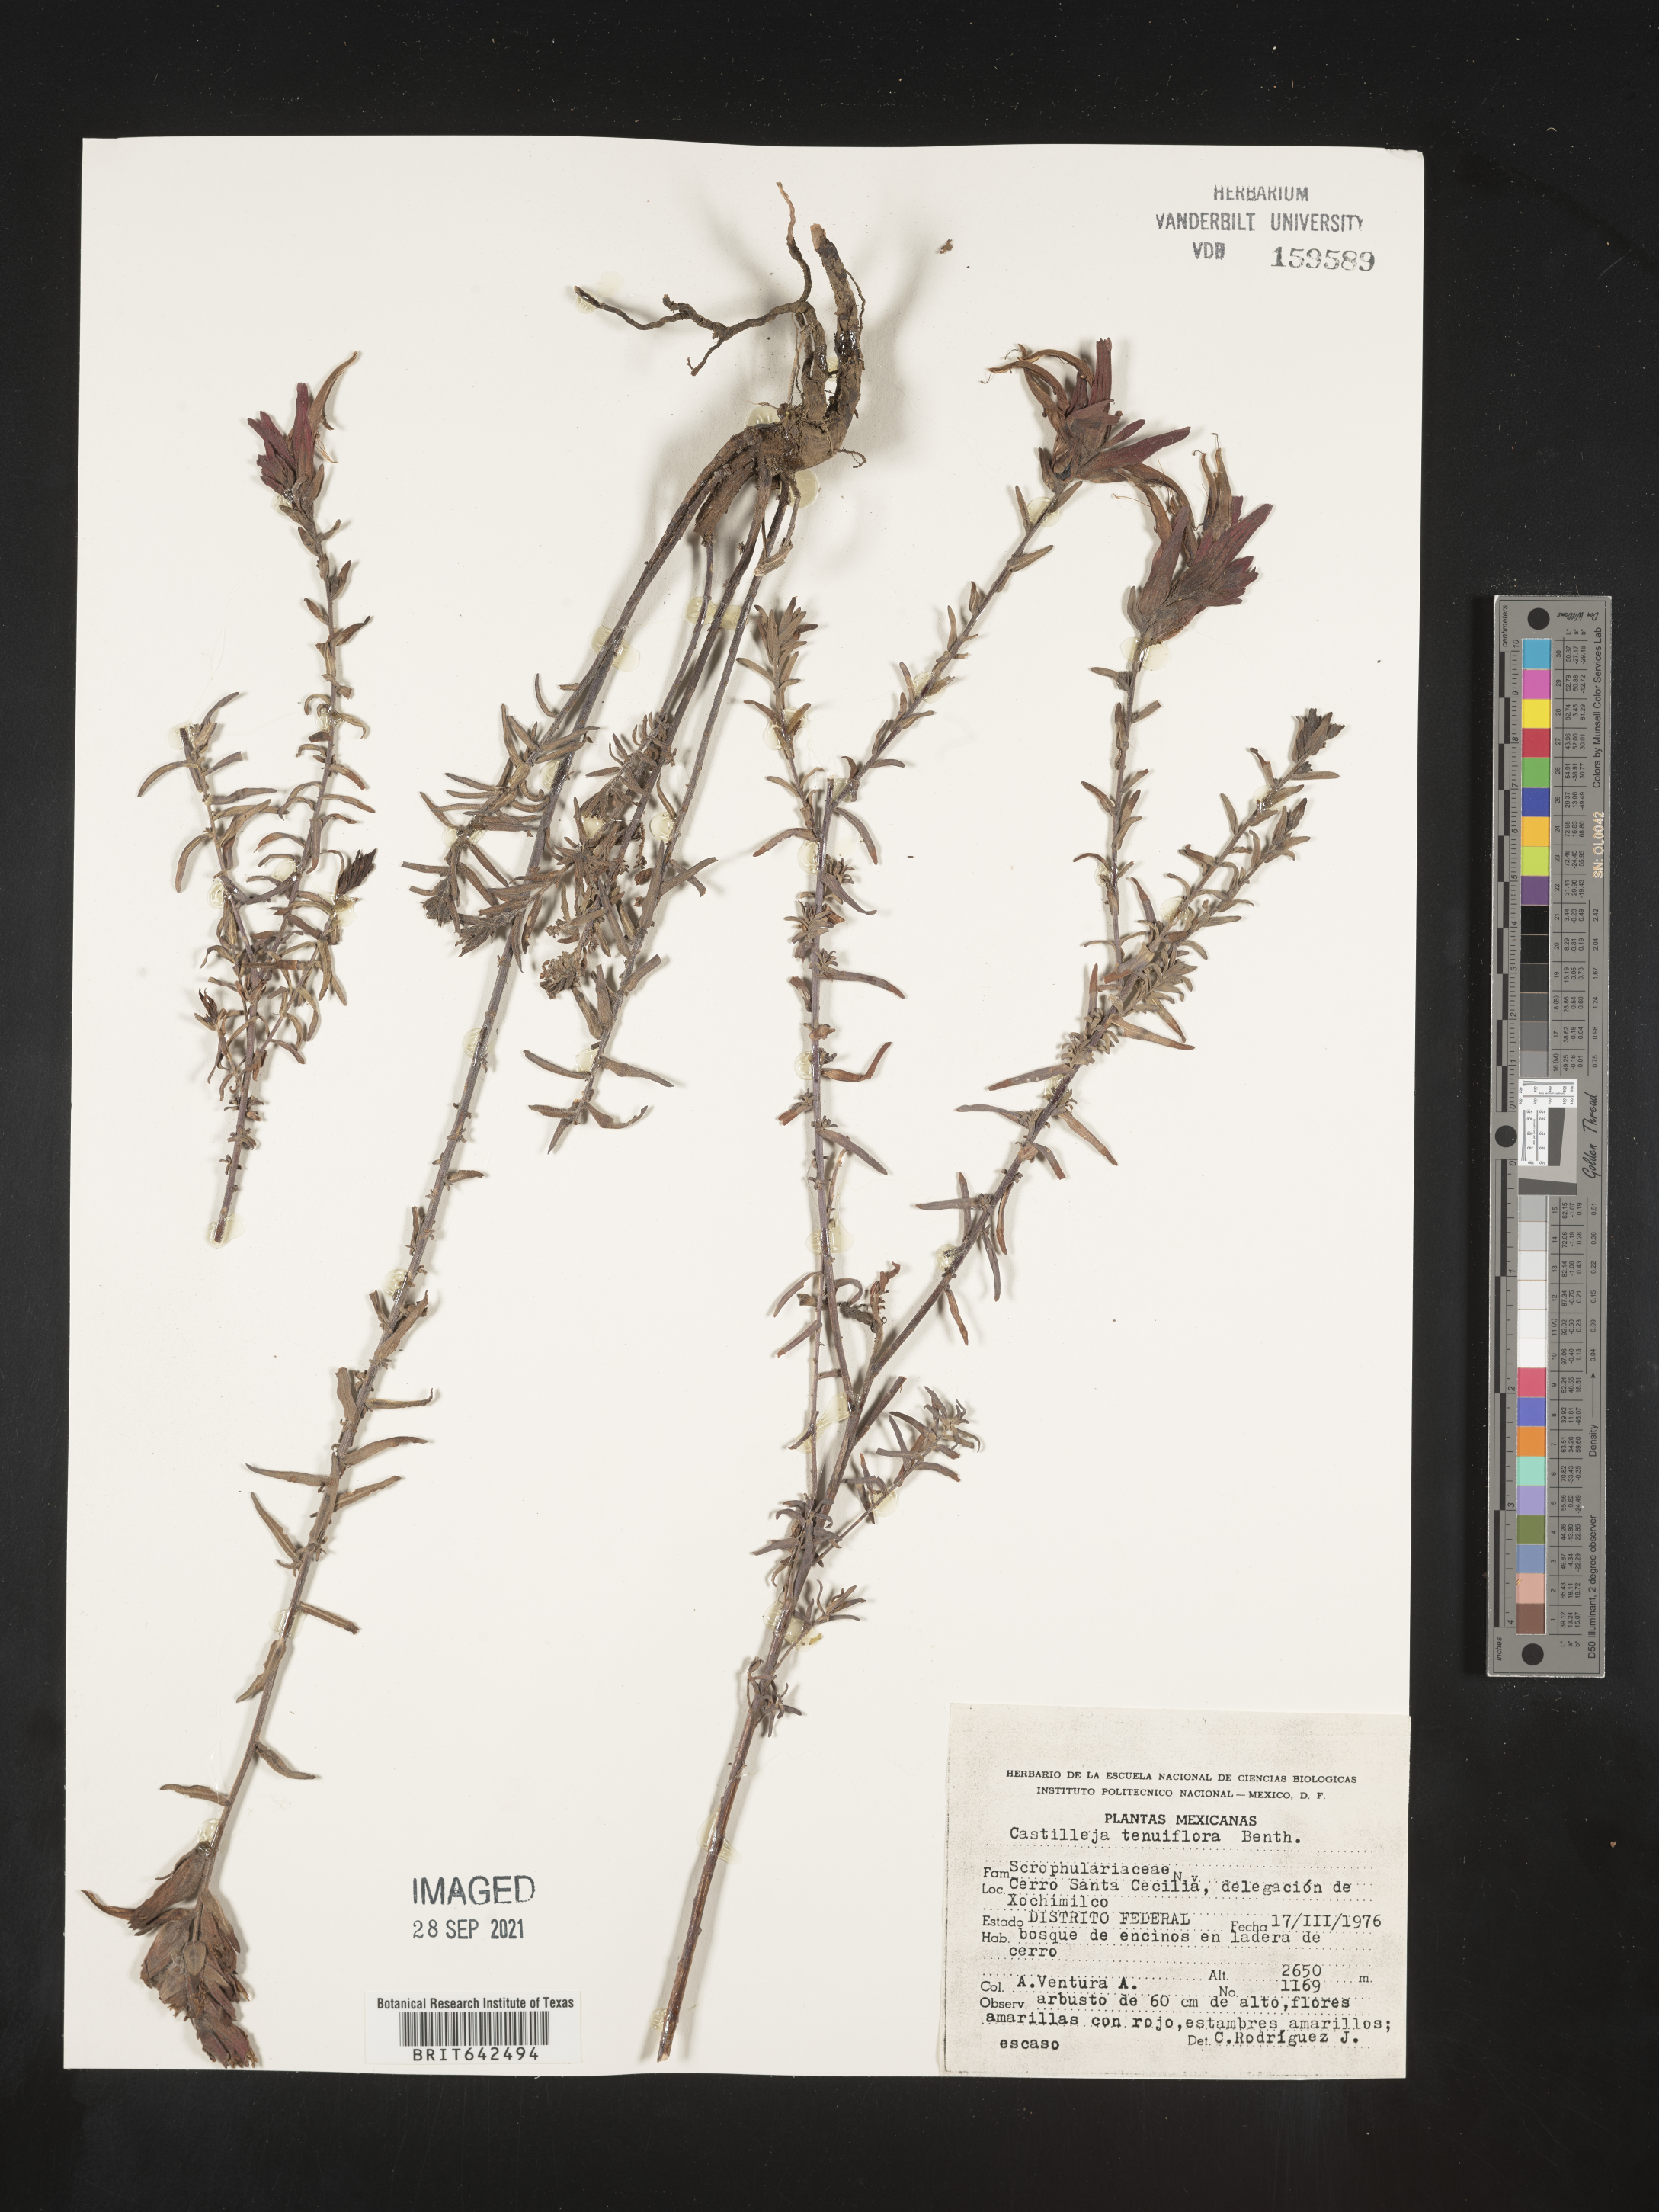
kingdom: Plantae
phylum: Tracheophyta
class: Magnoliopsida
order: Lamiales
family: Orobanchaceae
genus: Castilleja
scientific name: Castilleja
